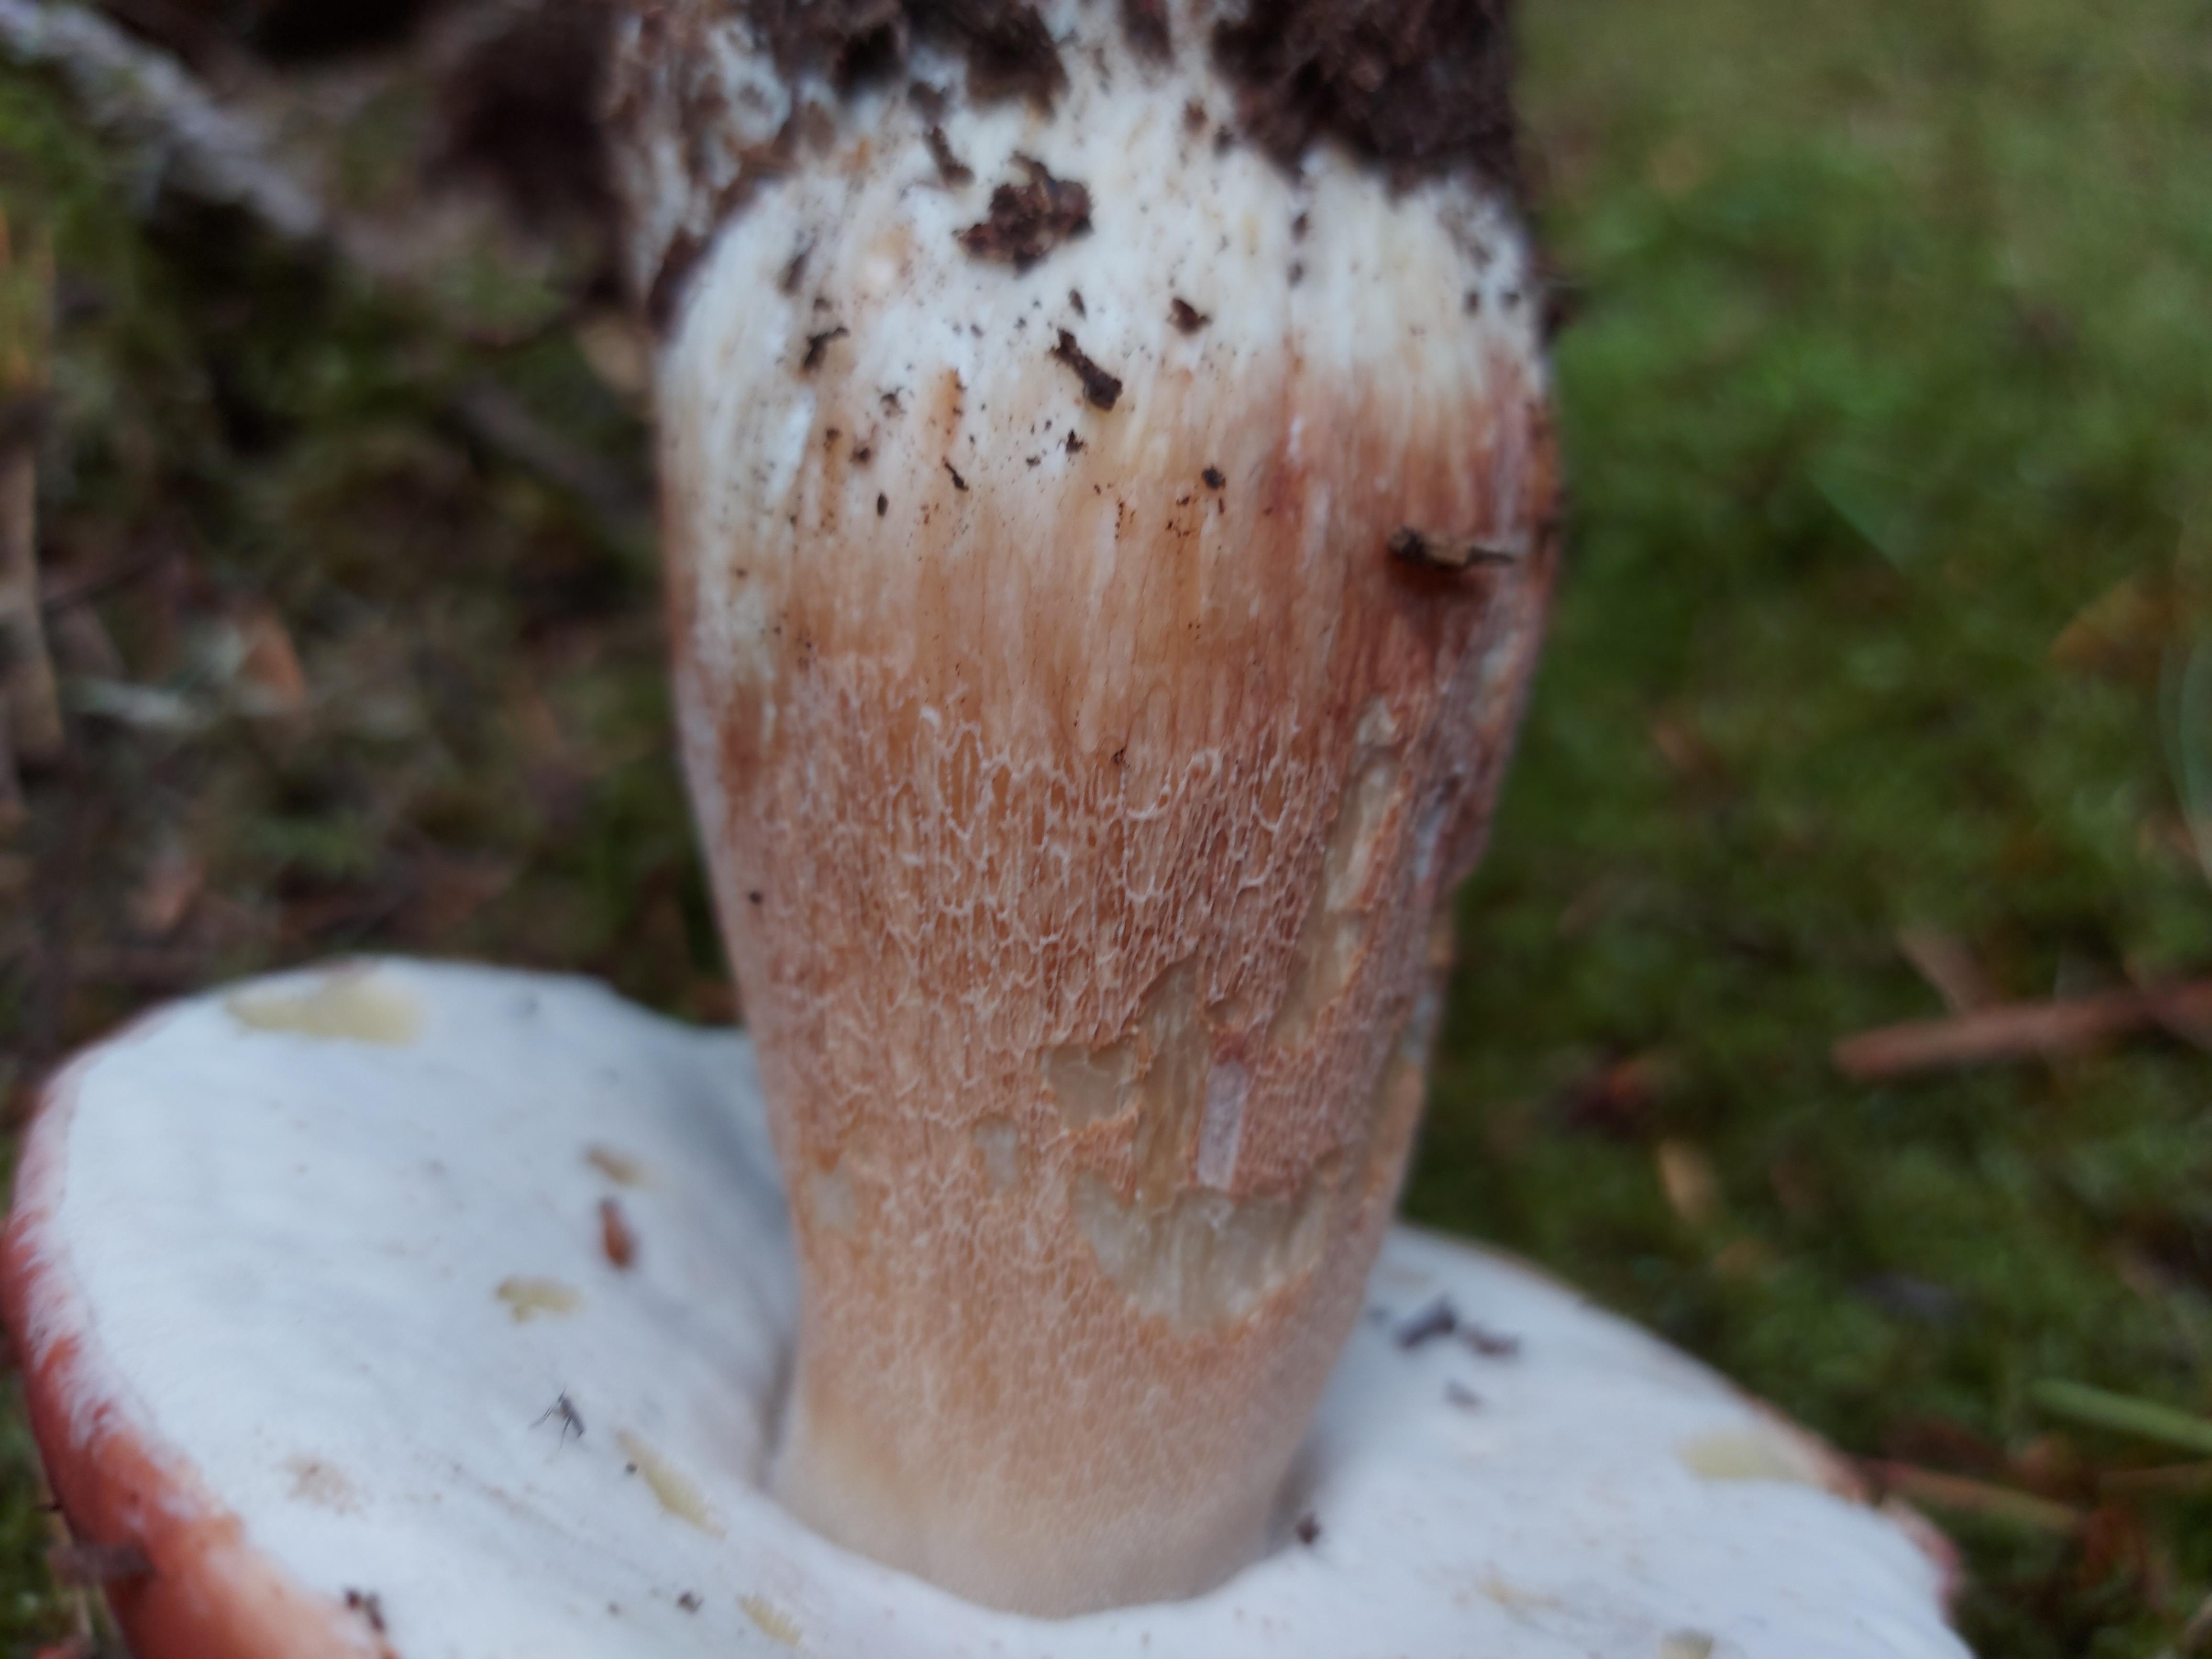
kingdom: Fungi
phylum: Basidiomycota
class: Agaricomycetes
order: Boletales
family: Boletaceae
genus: Boletus
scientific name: Boletus pinophilus
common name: rødbrun rørhat
